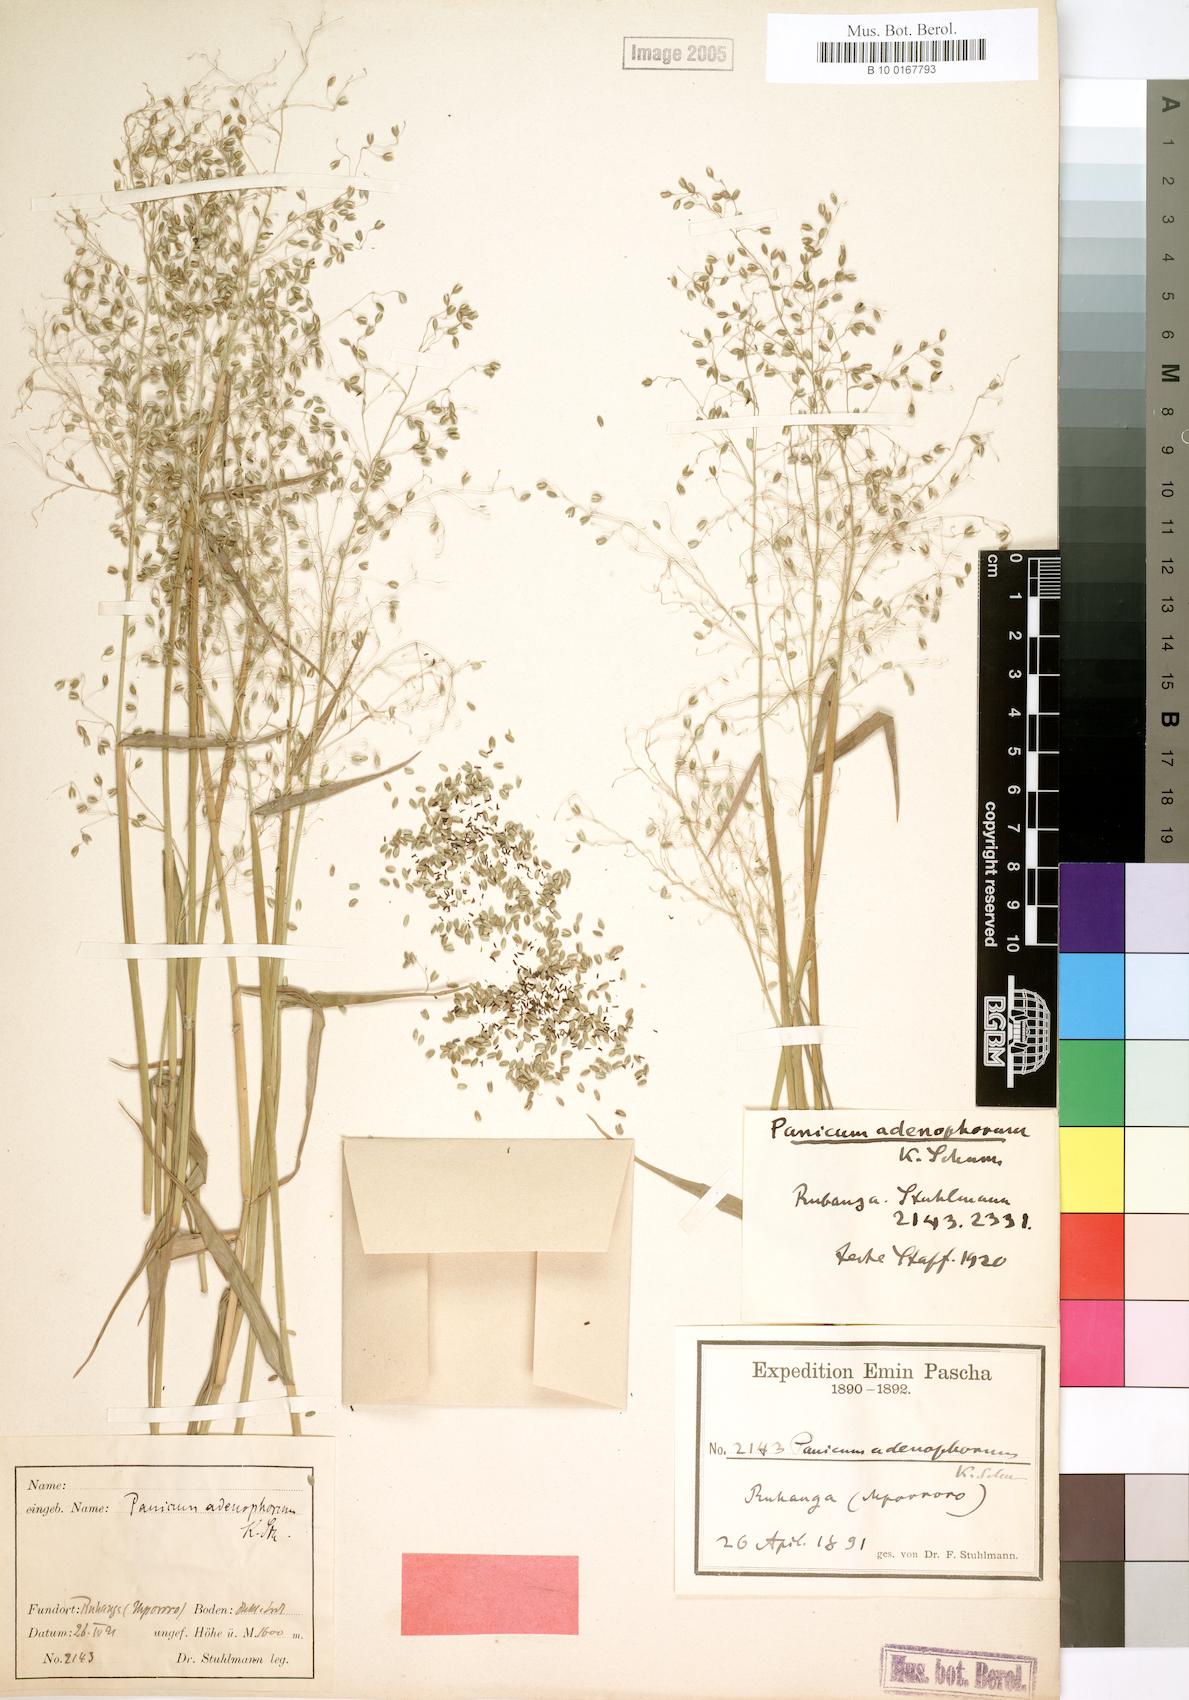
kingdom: Plantae
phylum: Tracheophyta
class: Liliopsida
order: Poales
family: Poaceae
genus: Adenochloa
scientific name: Adenochloa adenophora
